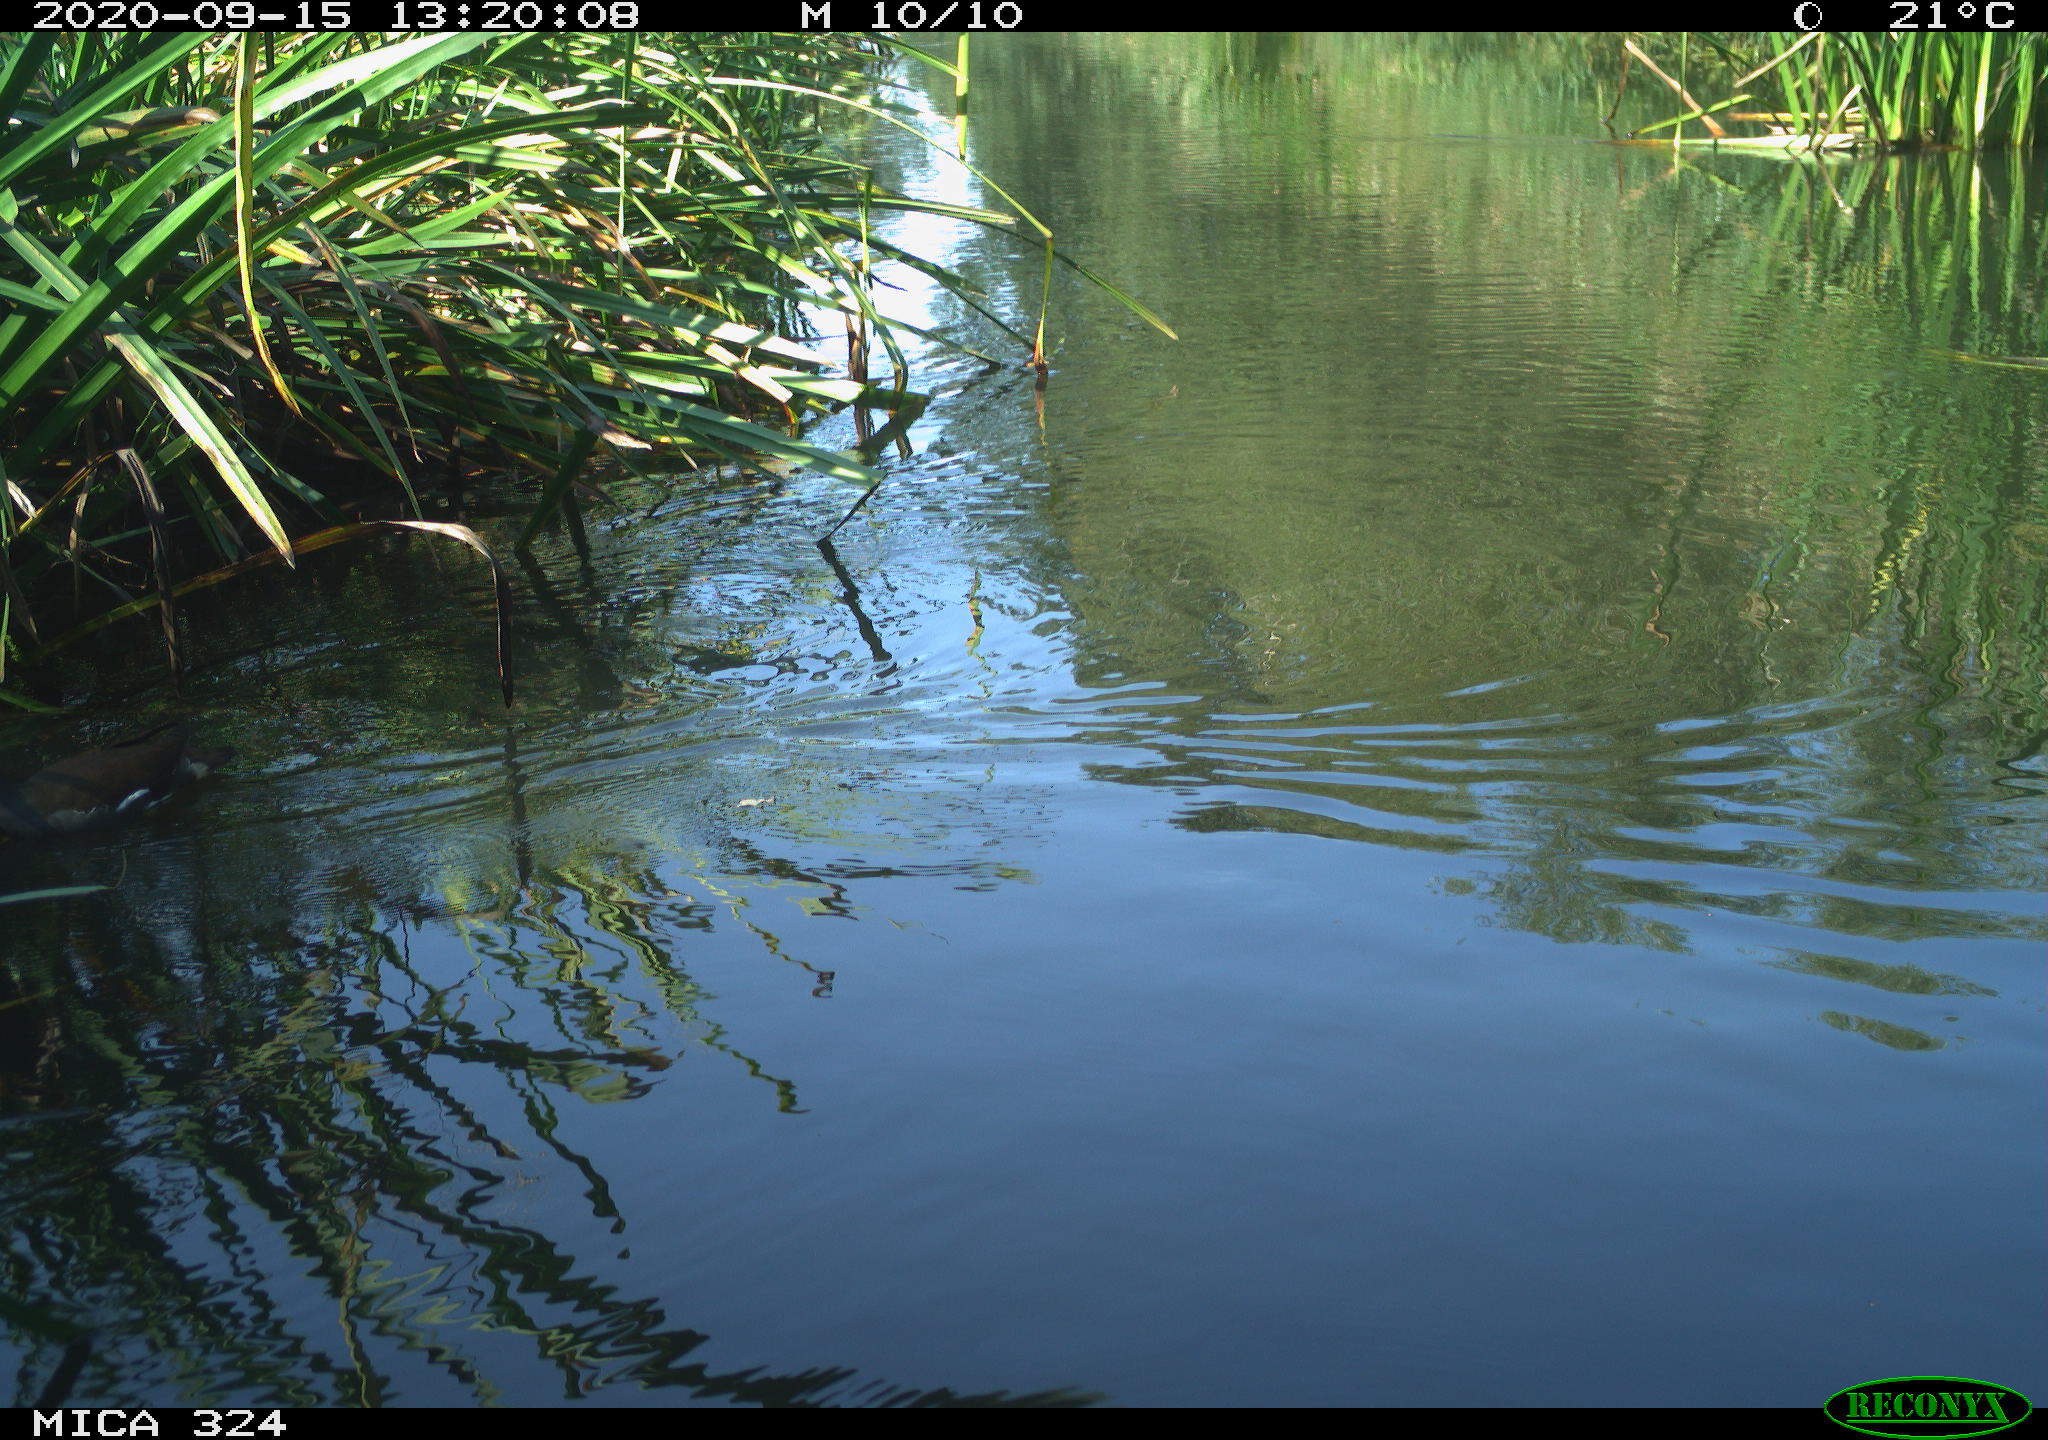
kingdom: Animalia
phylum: Chordata
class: Aves
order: Gruiformes
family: Rallidae
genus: Gallinula
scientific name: Gallinula chloropus
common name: Common moorhen
